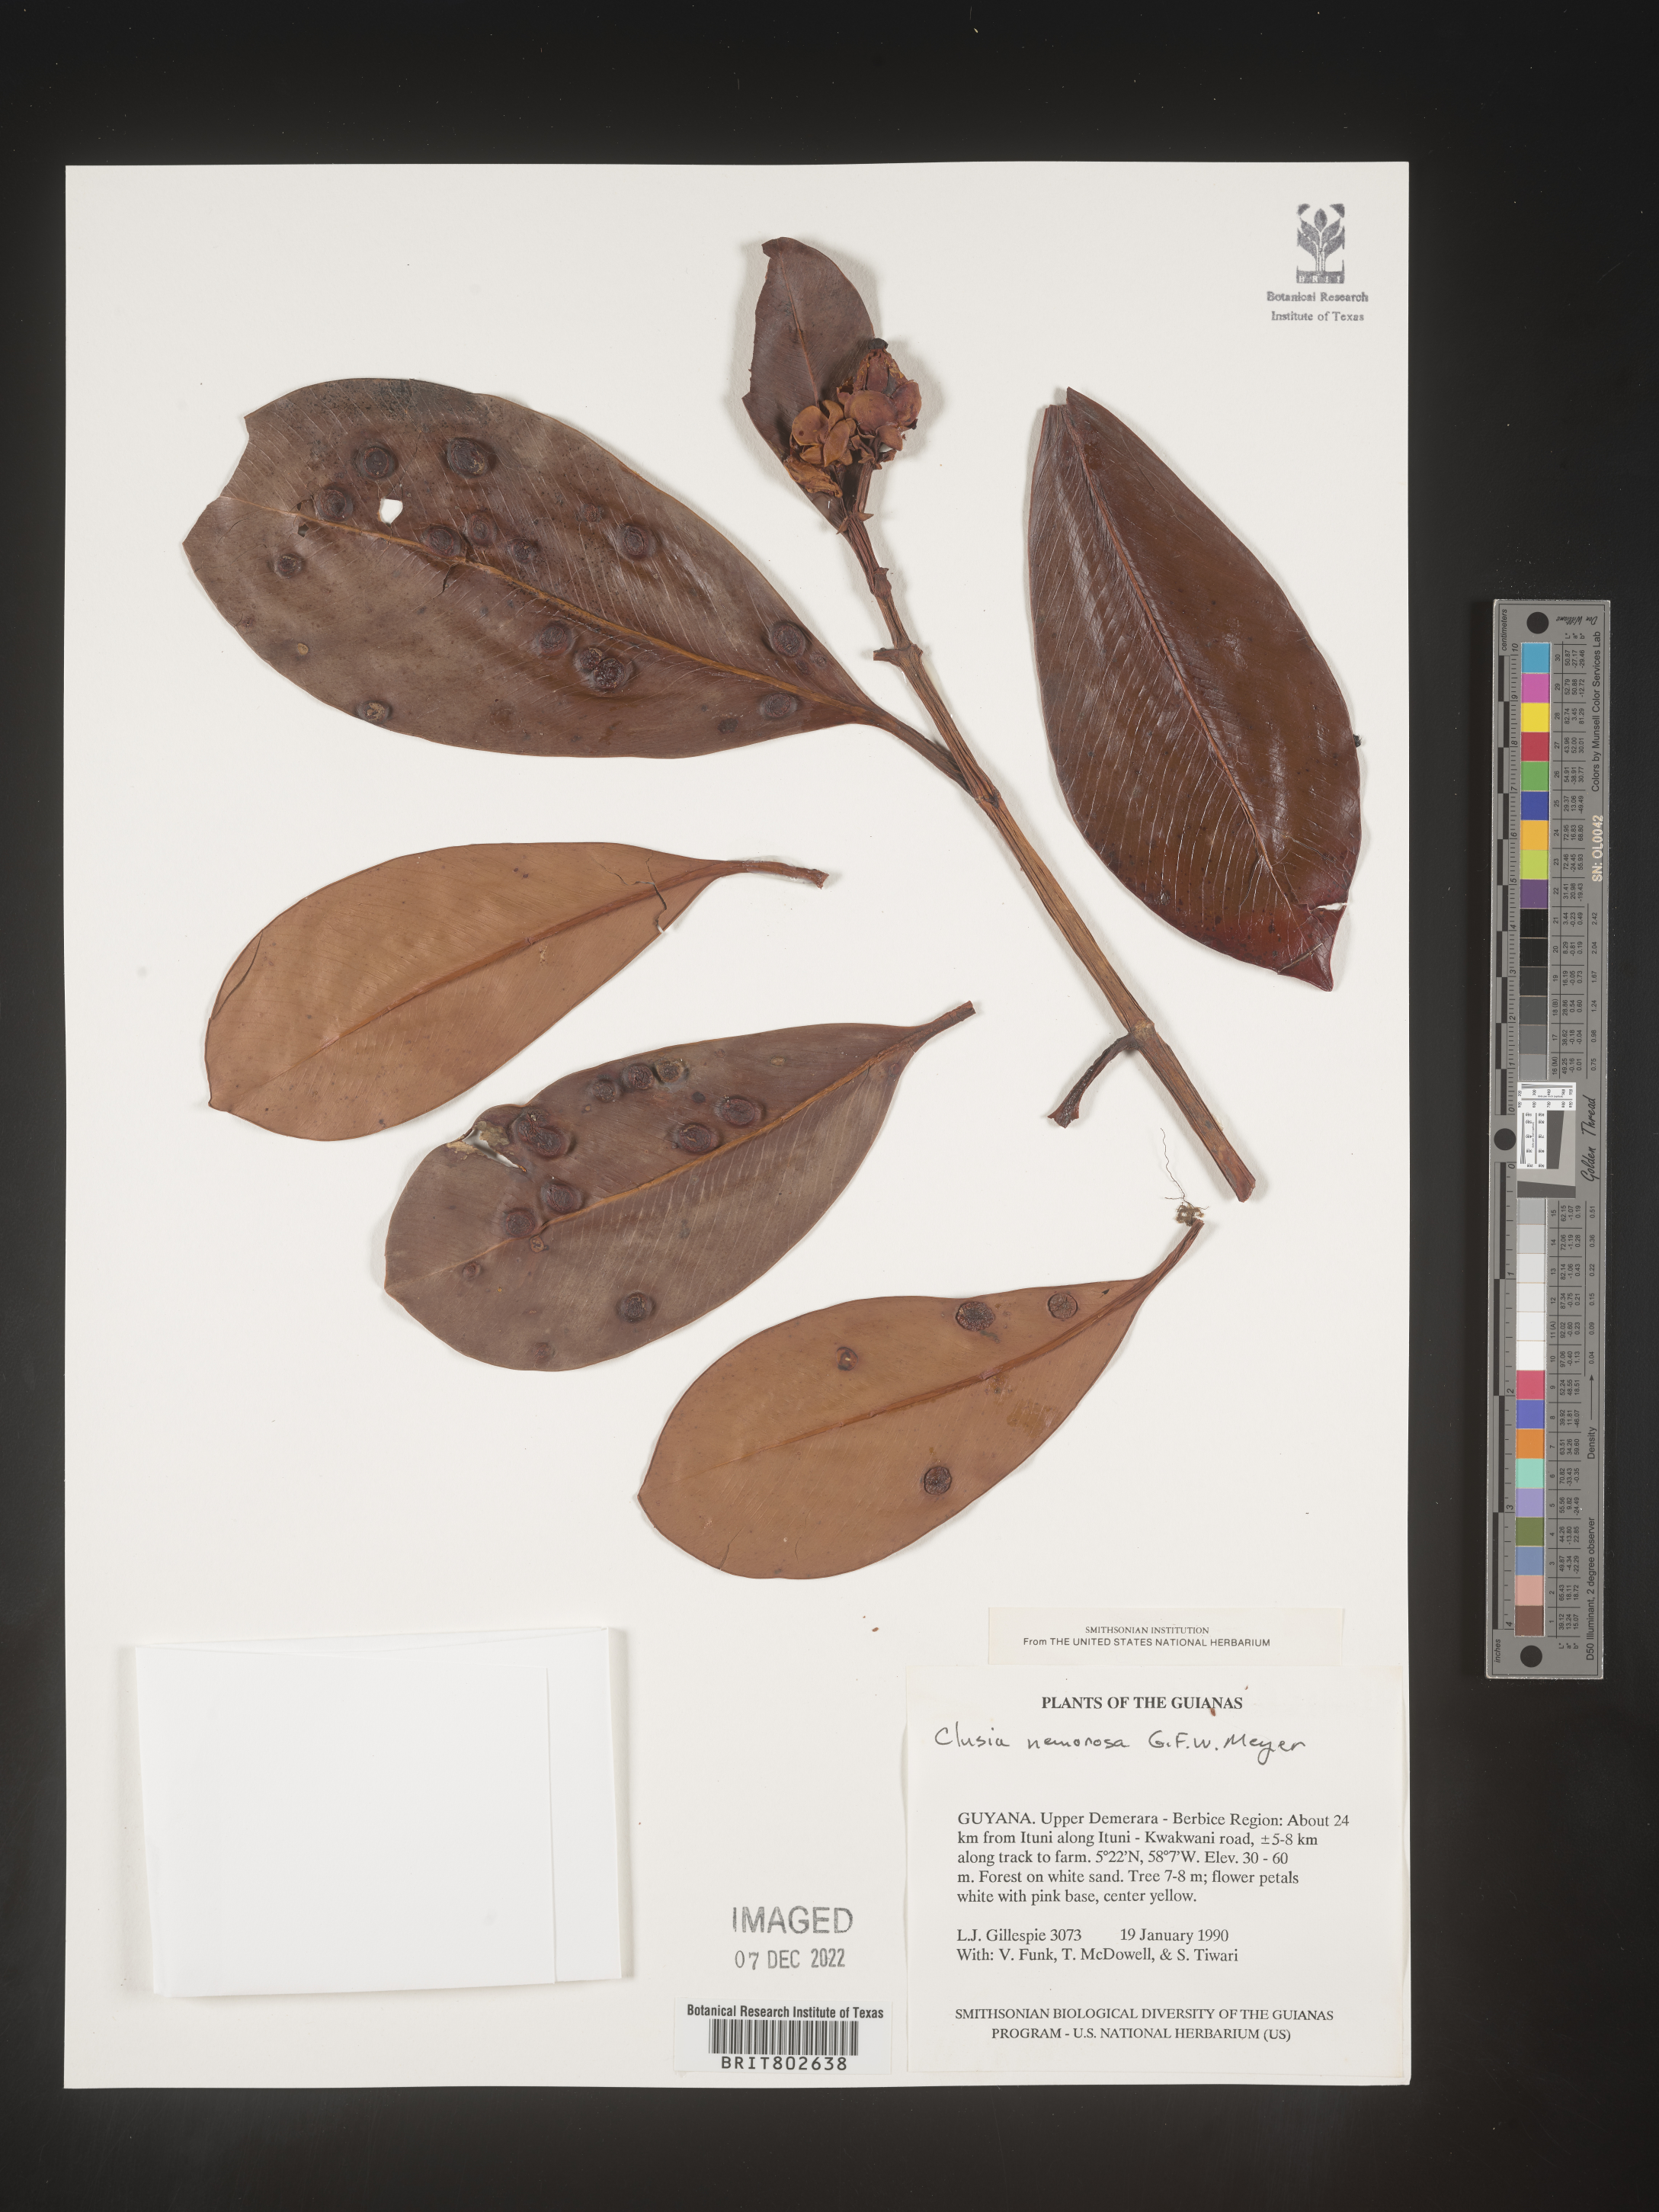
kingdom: Plantae
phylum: Tracheophyta
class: Magnoliopsida
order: Malpighiales
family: Clusiaceae
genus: Clusia
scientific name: Clusia nemorosa
